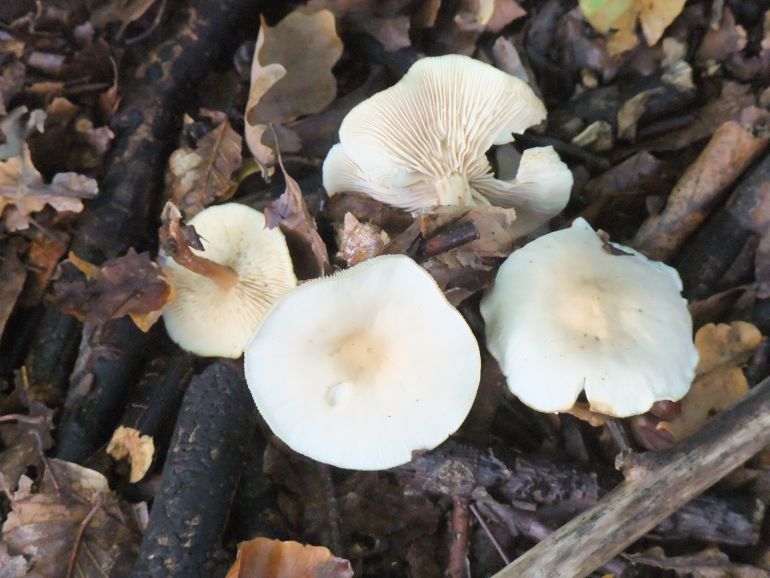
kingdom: Fungi
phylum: Basidiomycota
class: Agaricomycetes
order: Agaricales
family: Hymenogastraceae
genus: Hebeloma
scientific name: Hebeloma mesophaeum
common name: lerbrun tåreblad
